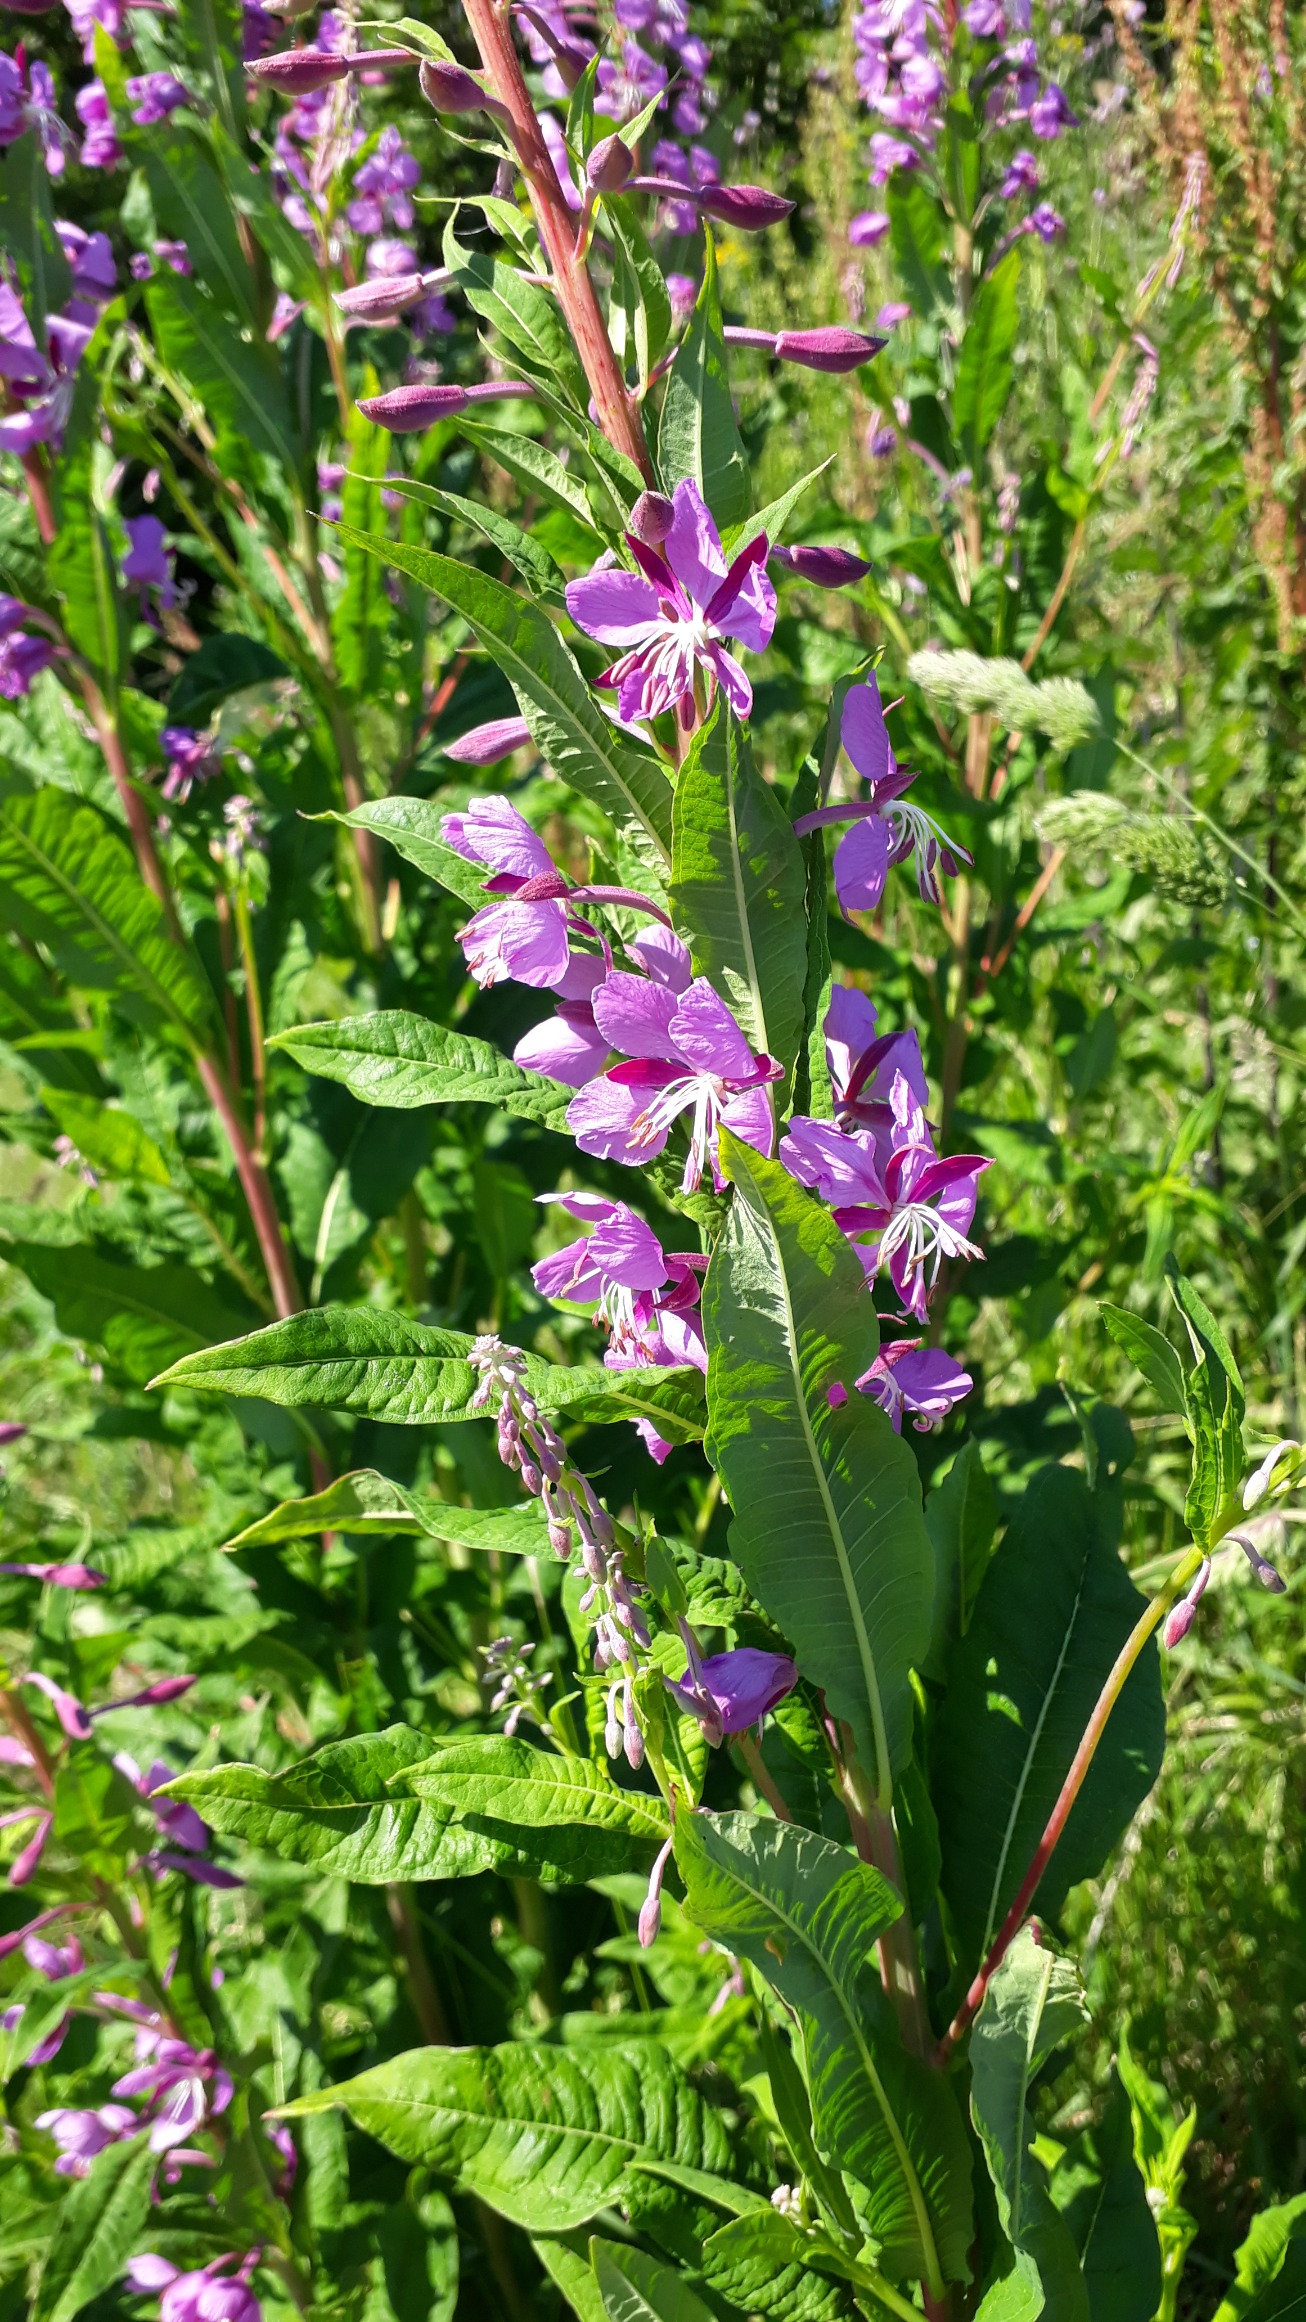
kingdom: Plantae
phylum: Tracheophyta
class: Magnoliopsida
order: Myrtales
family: Onagraceae
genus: Chamaenerion
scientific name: Chamaenerion angustifolium
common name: Gederams
